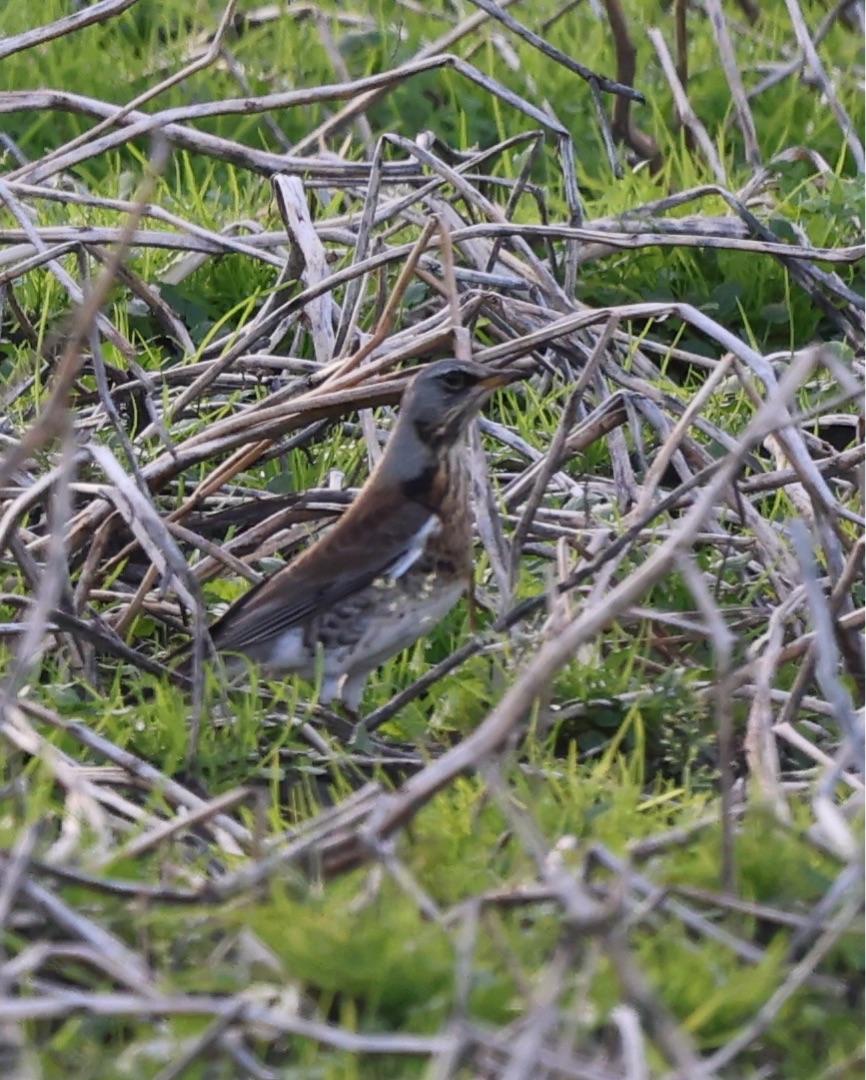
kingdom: Animalia
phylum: Chordata
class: Aves
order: Passeriformes
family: Turdidae
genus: Turdus
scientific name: Turdus pilaris
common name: Sjagger
